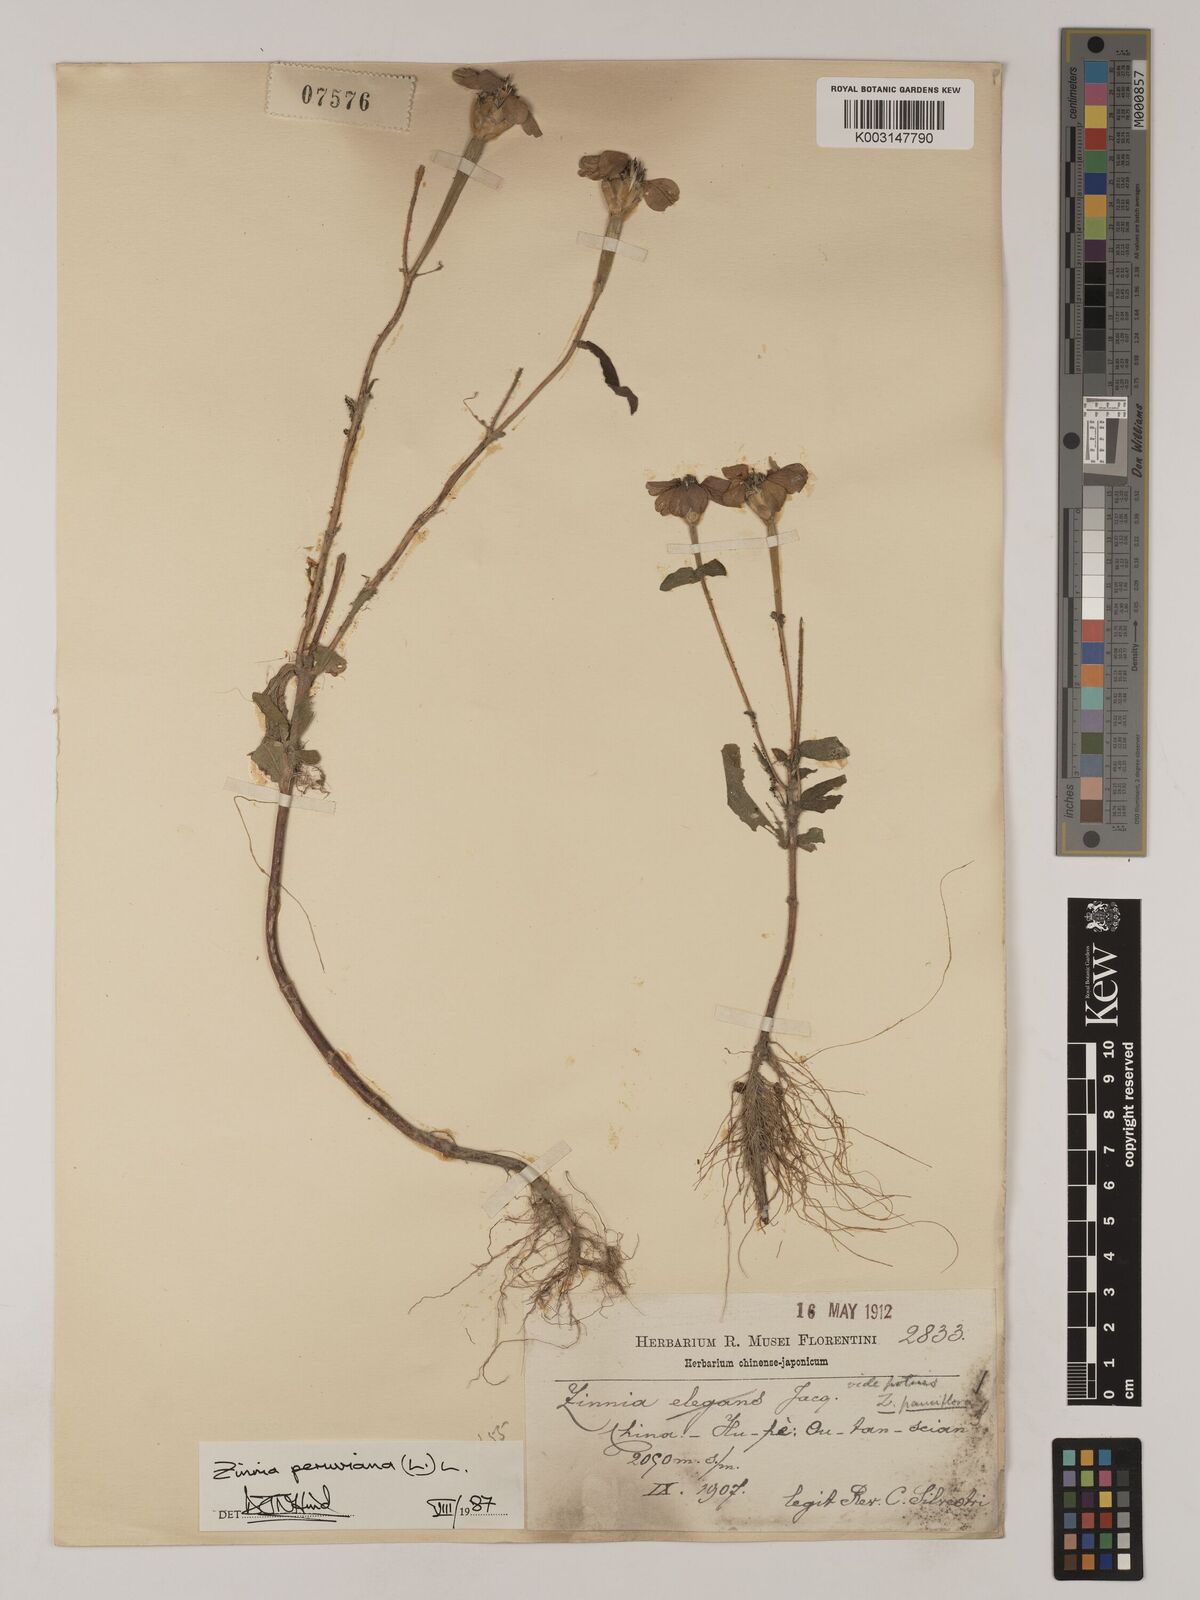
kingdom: Plantae
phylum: Tracheophyta
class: Magnoliopsida
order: Asterales
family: Asteraceae
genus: Zinnia
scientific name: Zinnia peruviana
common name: Peruvian zinnia
